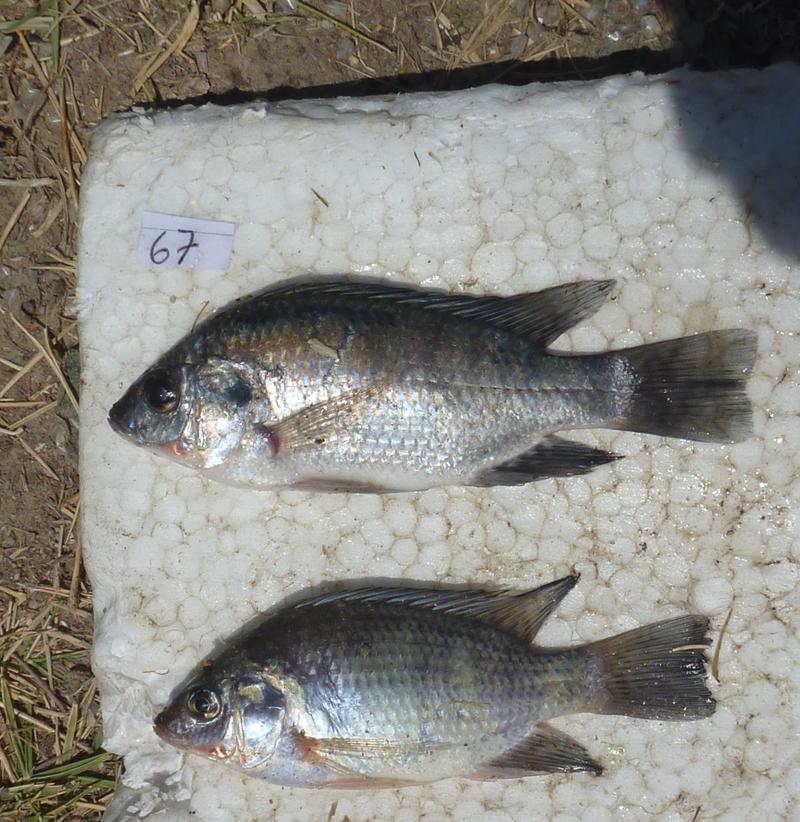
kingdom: Animalia
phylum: Chordata
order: Perciformes
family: Cichlidae
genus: Oreochromis
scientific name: Oreochromis rukwaensis
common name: Lake rukwa tilapia
